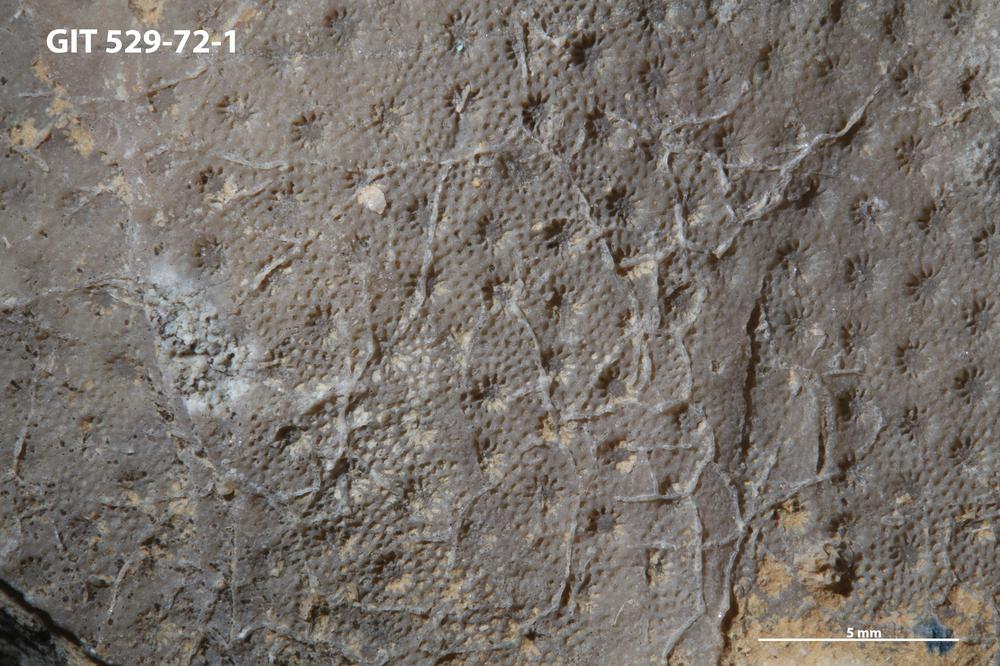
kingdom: Animalia
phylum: Bryozoa
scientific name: Bryozoa
